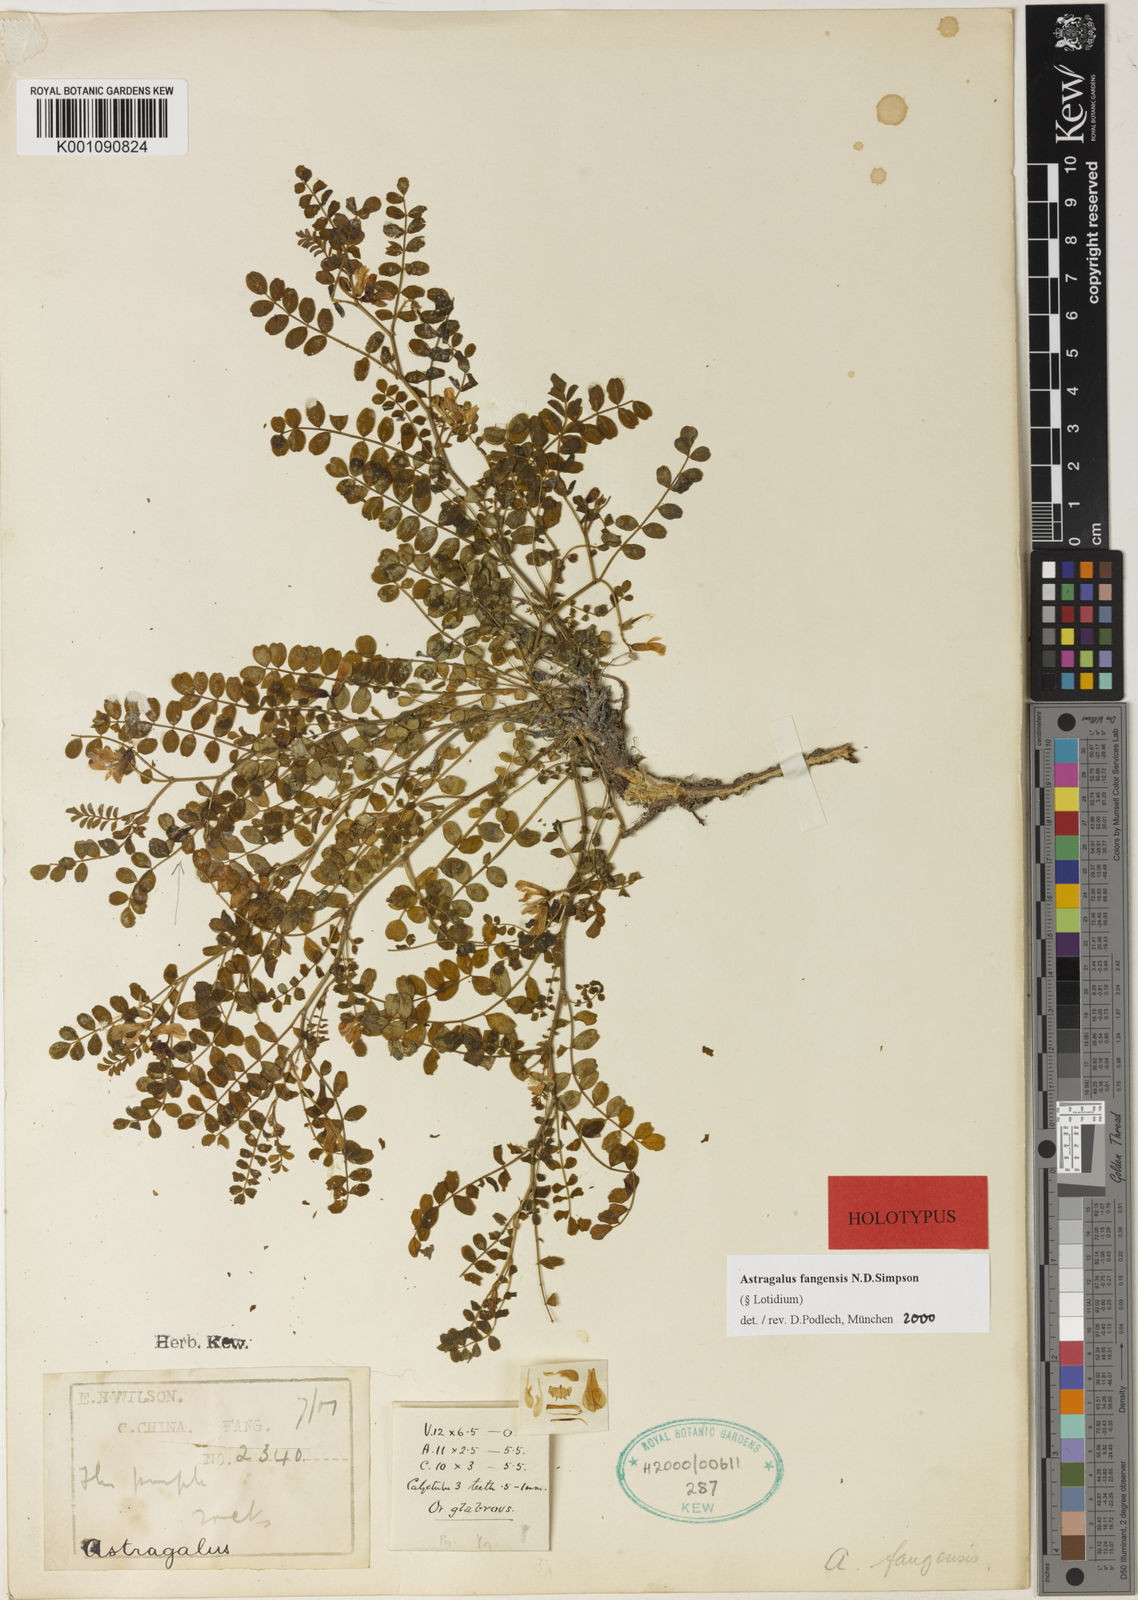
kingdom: Plantae
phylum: Tracheophyta
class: Magnoliopsida
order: Fabales
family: Fabaceae
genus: Astragalus
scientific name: Astragalus
